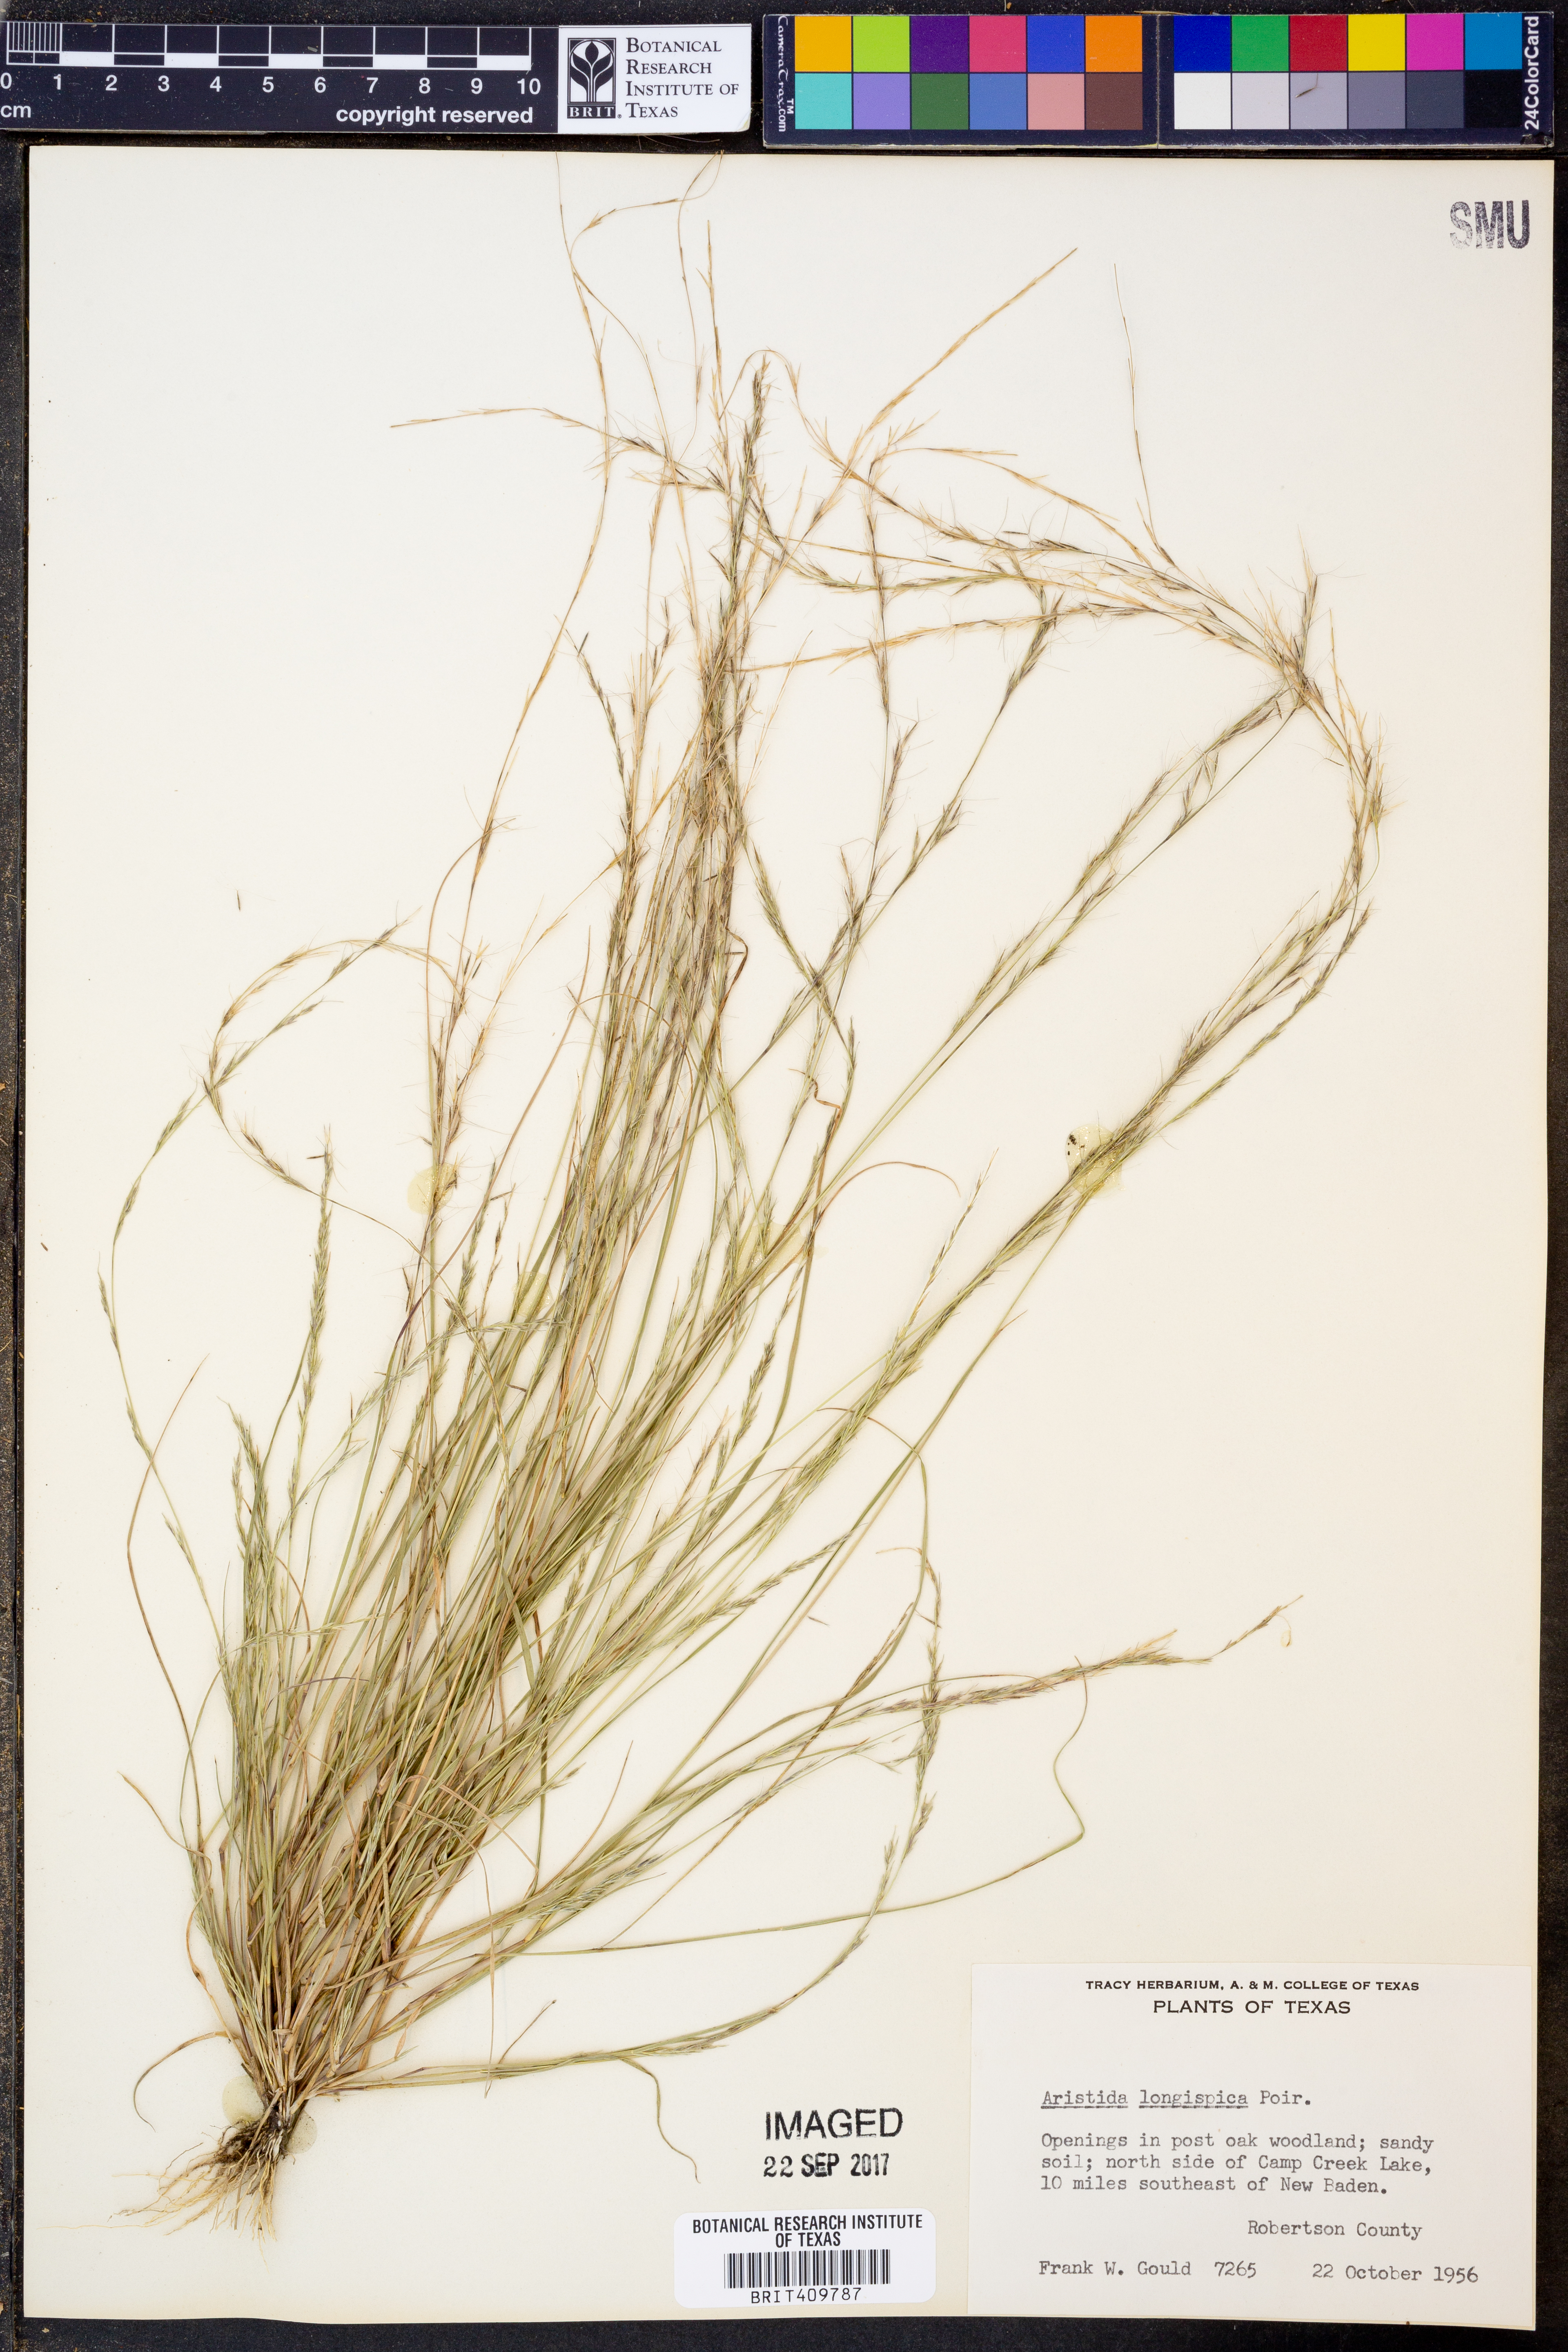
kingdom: Plantae
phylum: Tracheophyta
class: Liliopsida
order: Poales
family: Poaceae
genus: Aristida
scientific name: Aristida longespica
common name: Long-spiked triple-awned grass
